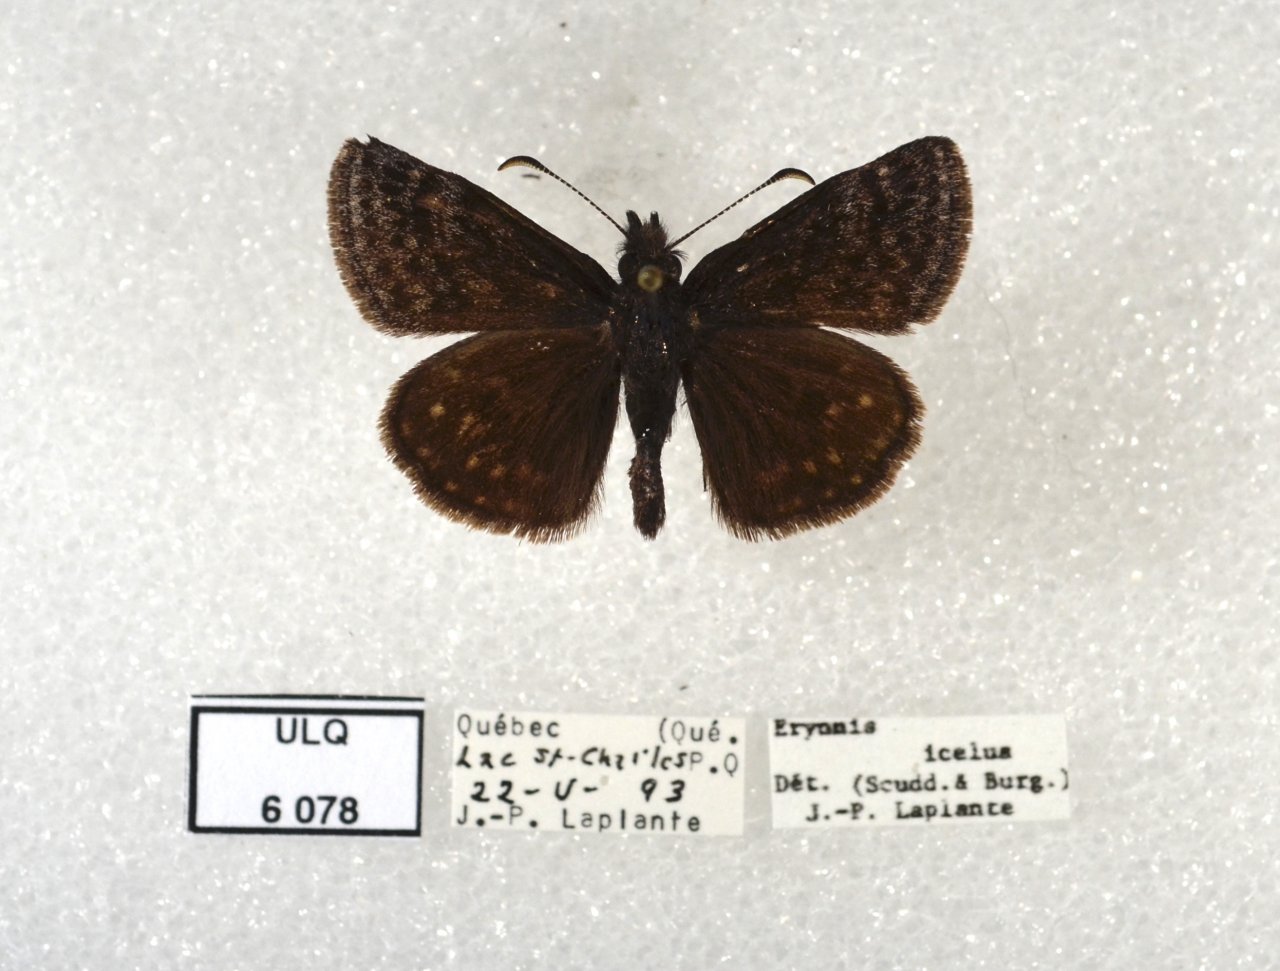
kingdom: Animalia
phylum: Arthropoda
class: Insecta
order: Lepidoptera
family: Hesperiidae
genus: Erynnis
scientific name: Erynnis icelus
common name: Dreamy Duskywing
